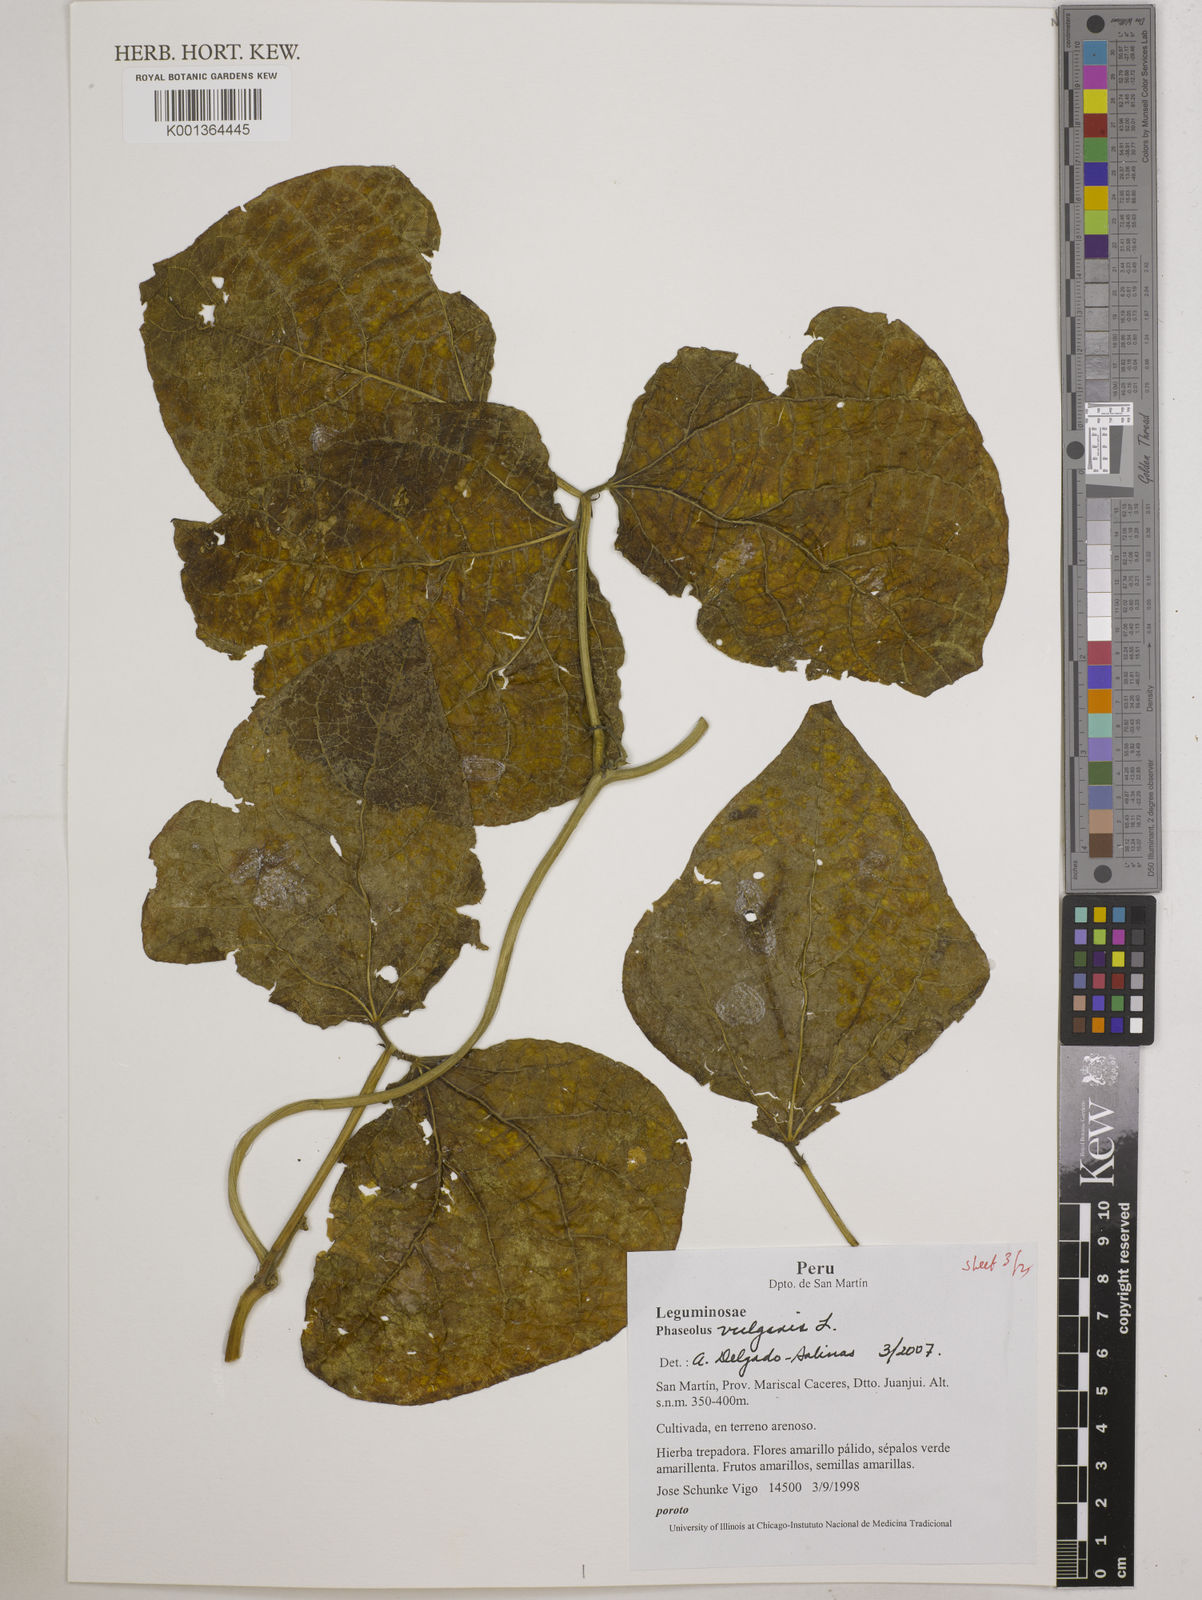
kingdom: Plantae
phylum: Tracheophyta
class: Magnoliopsida
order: Fabales
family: Fabaceae
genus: Phaseolus
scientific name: Phaseolus vulgaris
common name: Bean
